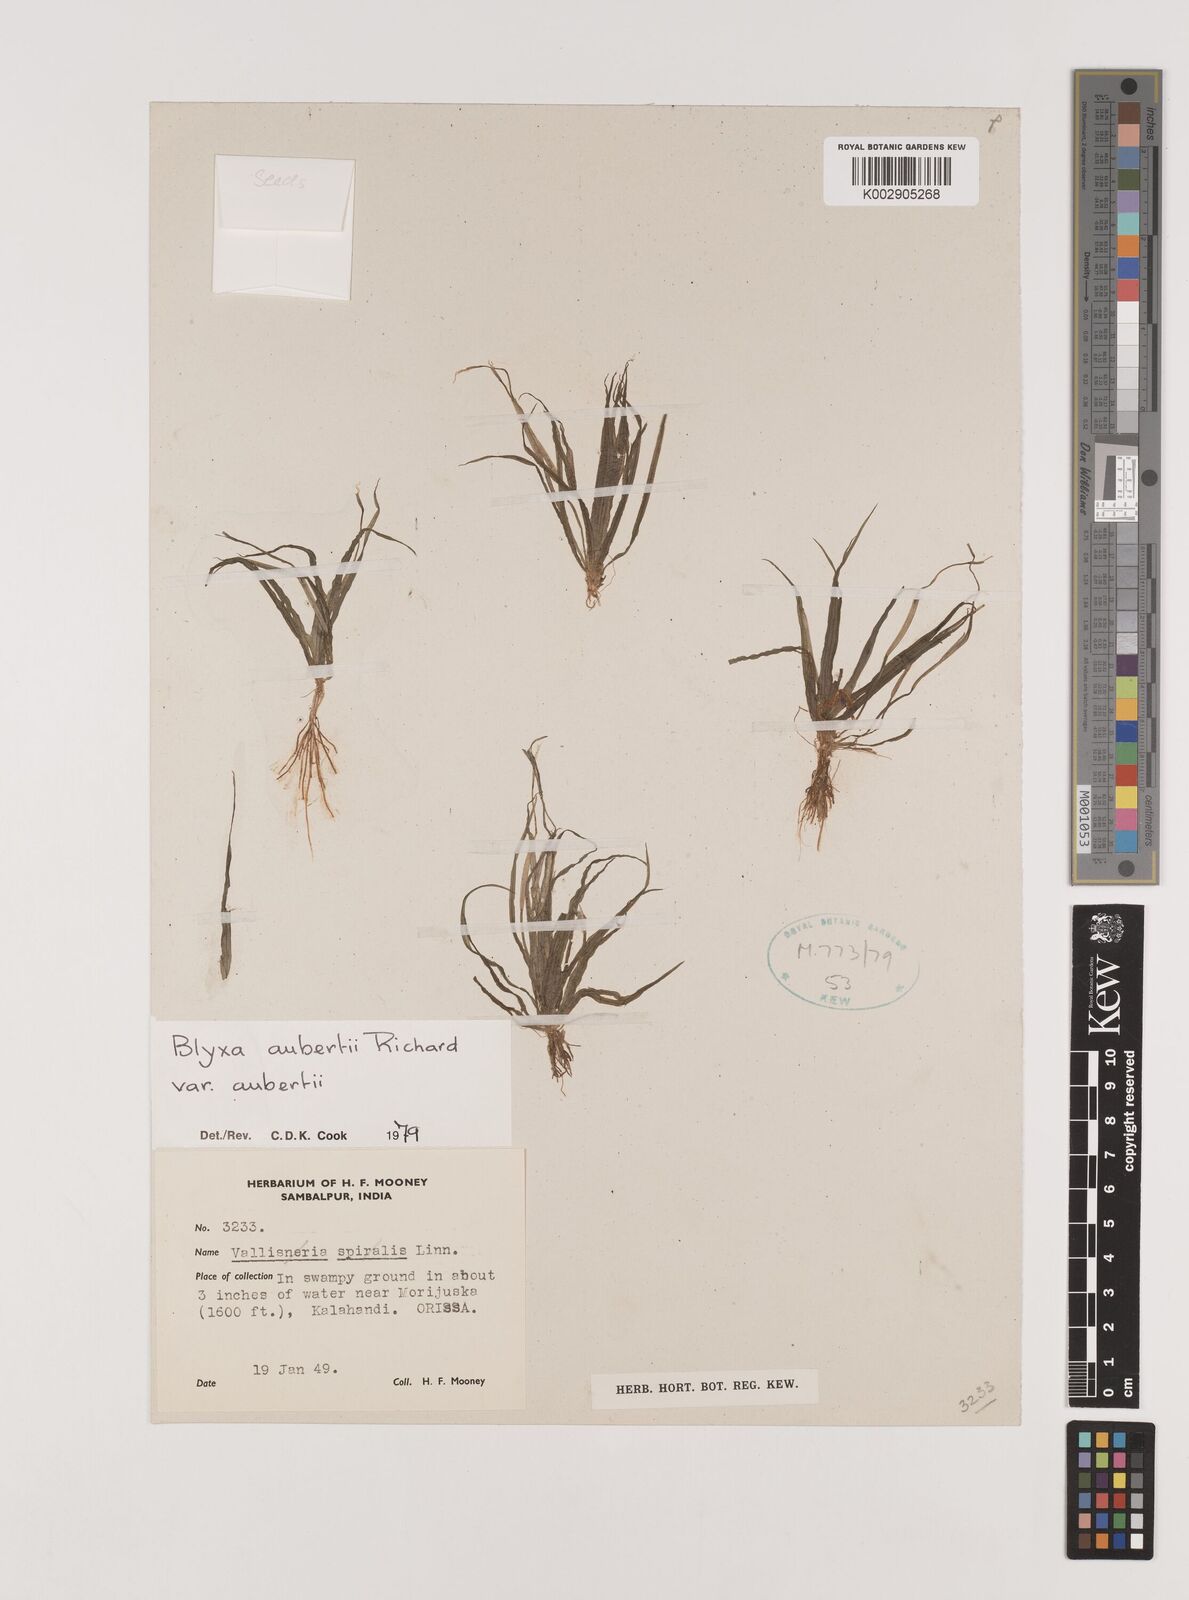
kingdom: Plantae
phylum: Tracheophyta
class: Liliopsida
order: Alismatales
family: Hydrocharitaceae
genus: Blyxa
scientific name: Blyxa aubertii
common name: Roundfruit blyxa
